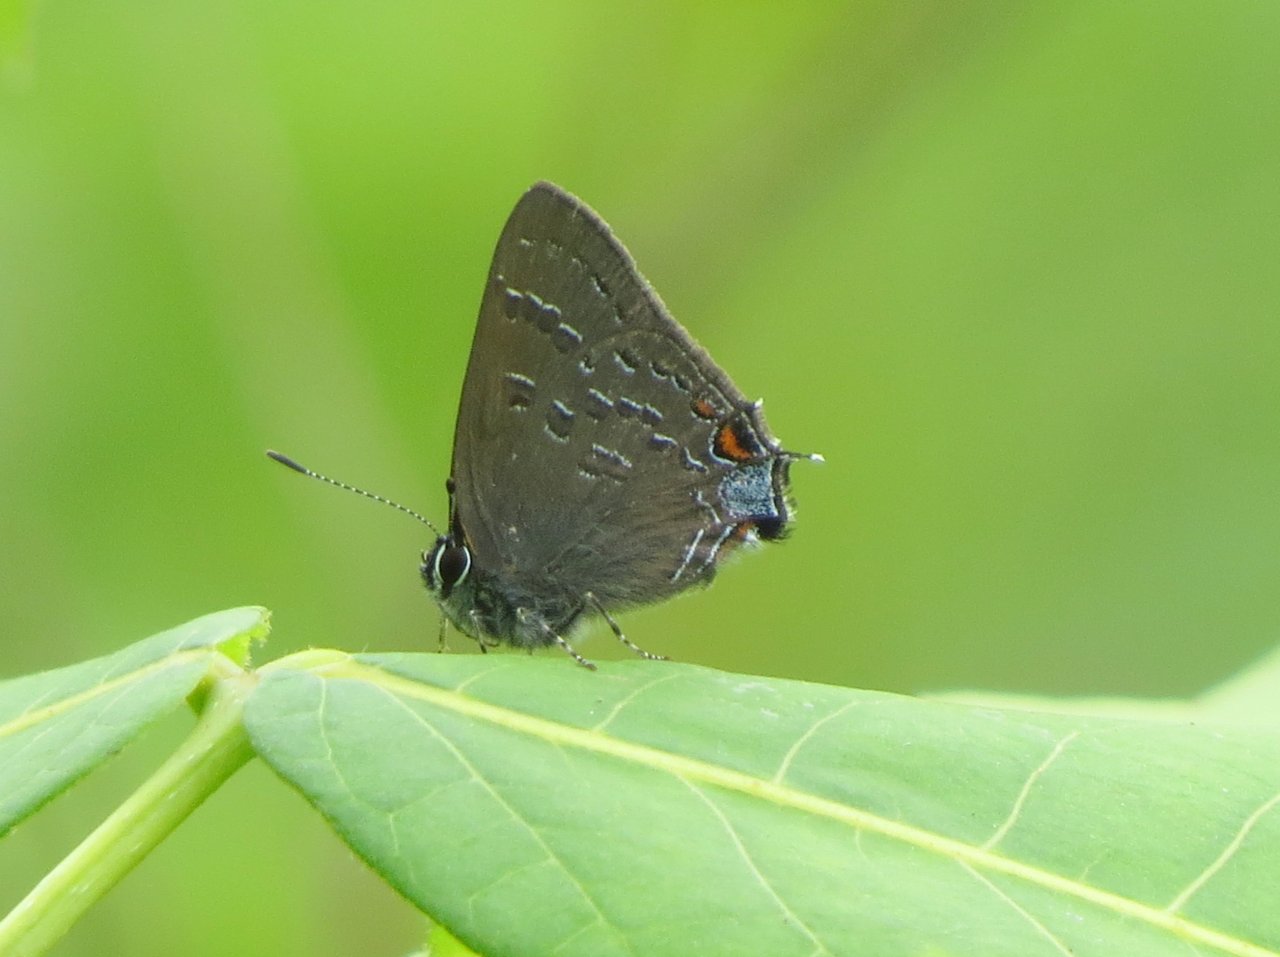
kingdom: Animalia
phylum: Arthropoda
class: Insecta
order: Lepidoptera
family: Lycaenidae
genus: Satyrium
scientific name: Satyrium calanus
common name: Banded Hairstreak
